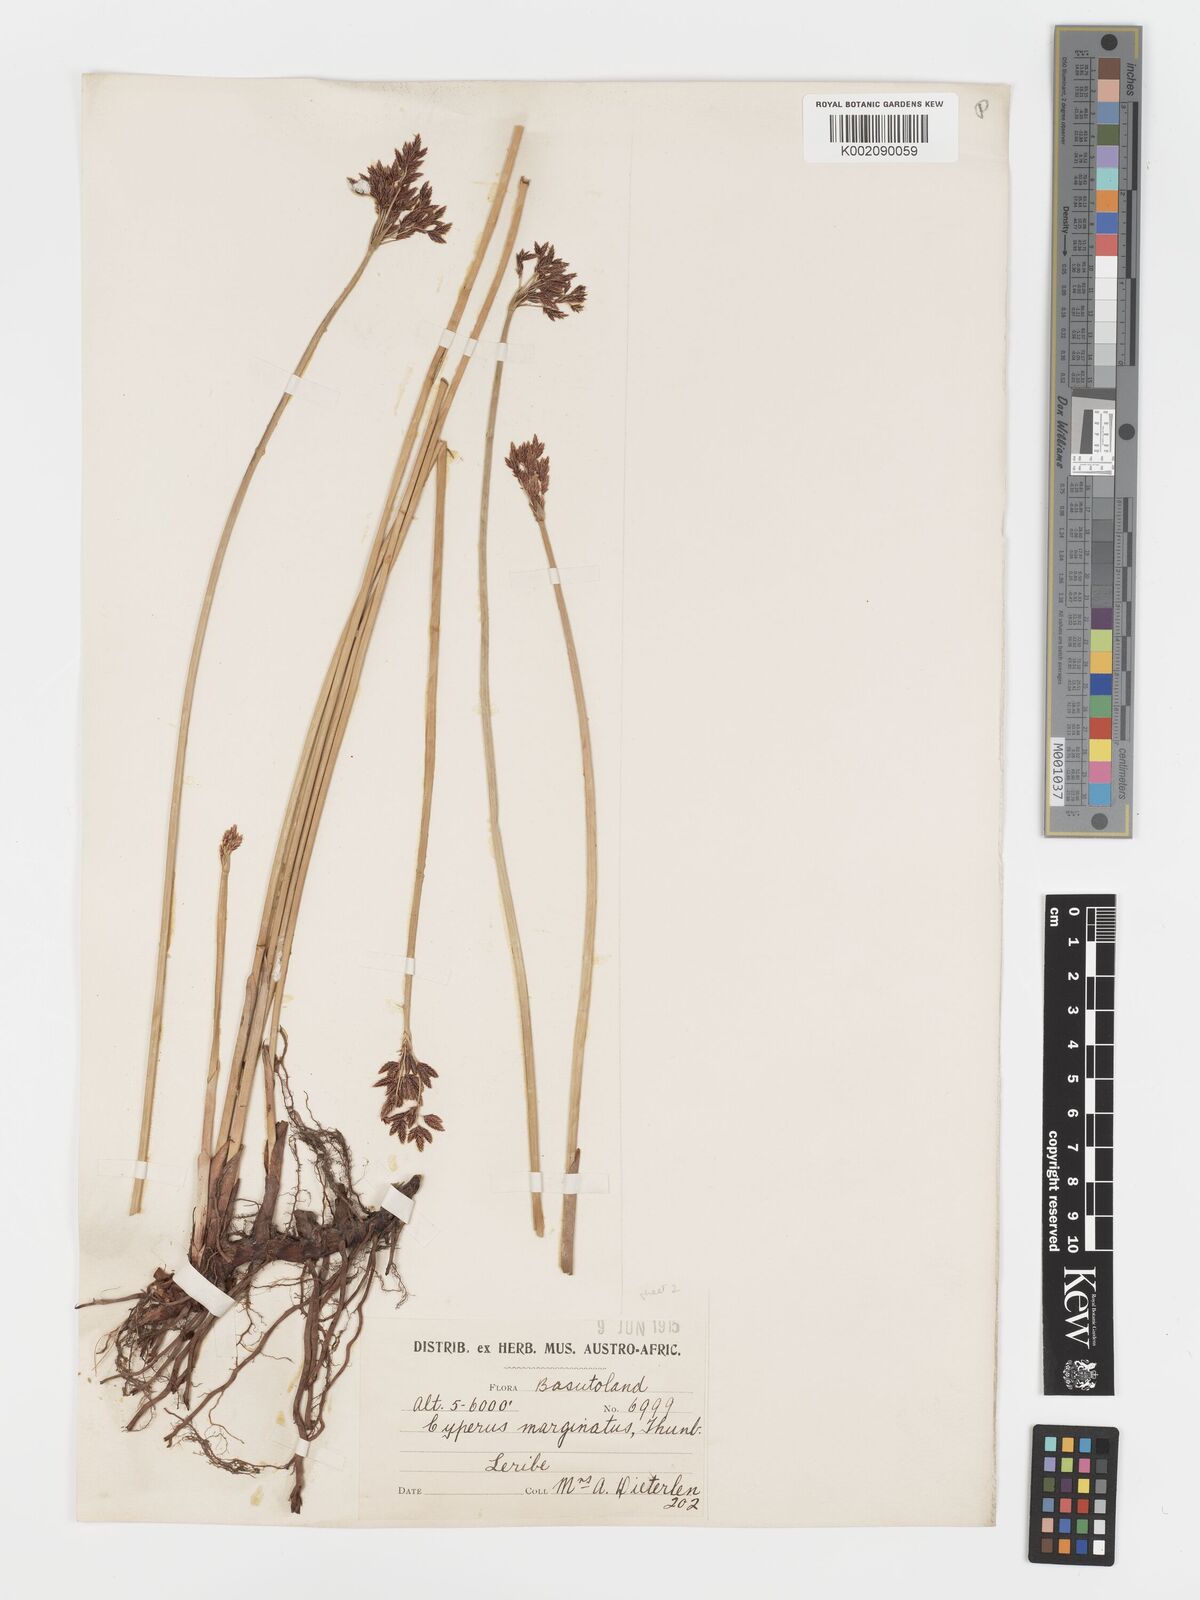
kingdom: Plantae
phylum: Tracheophyta
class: Liliopsida
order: Poales
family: Cyperaceae
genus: Cyperus
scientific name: Cyperus marginatus
